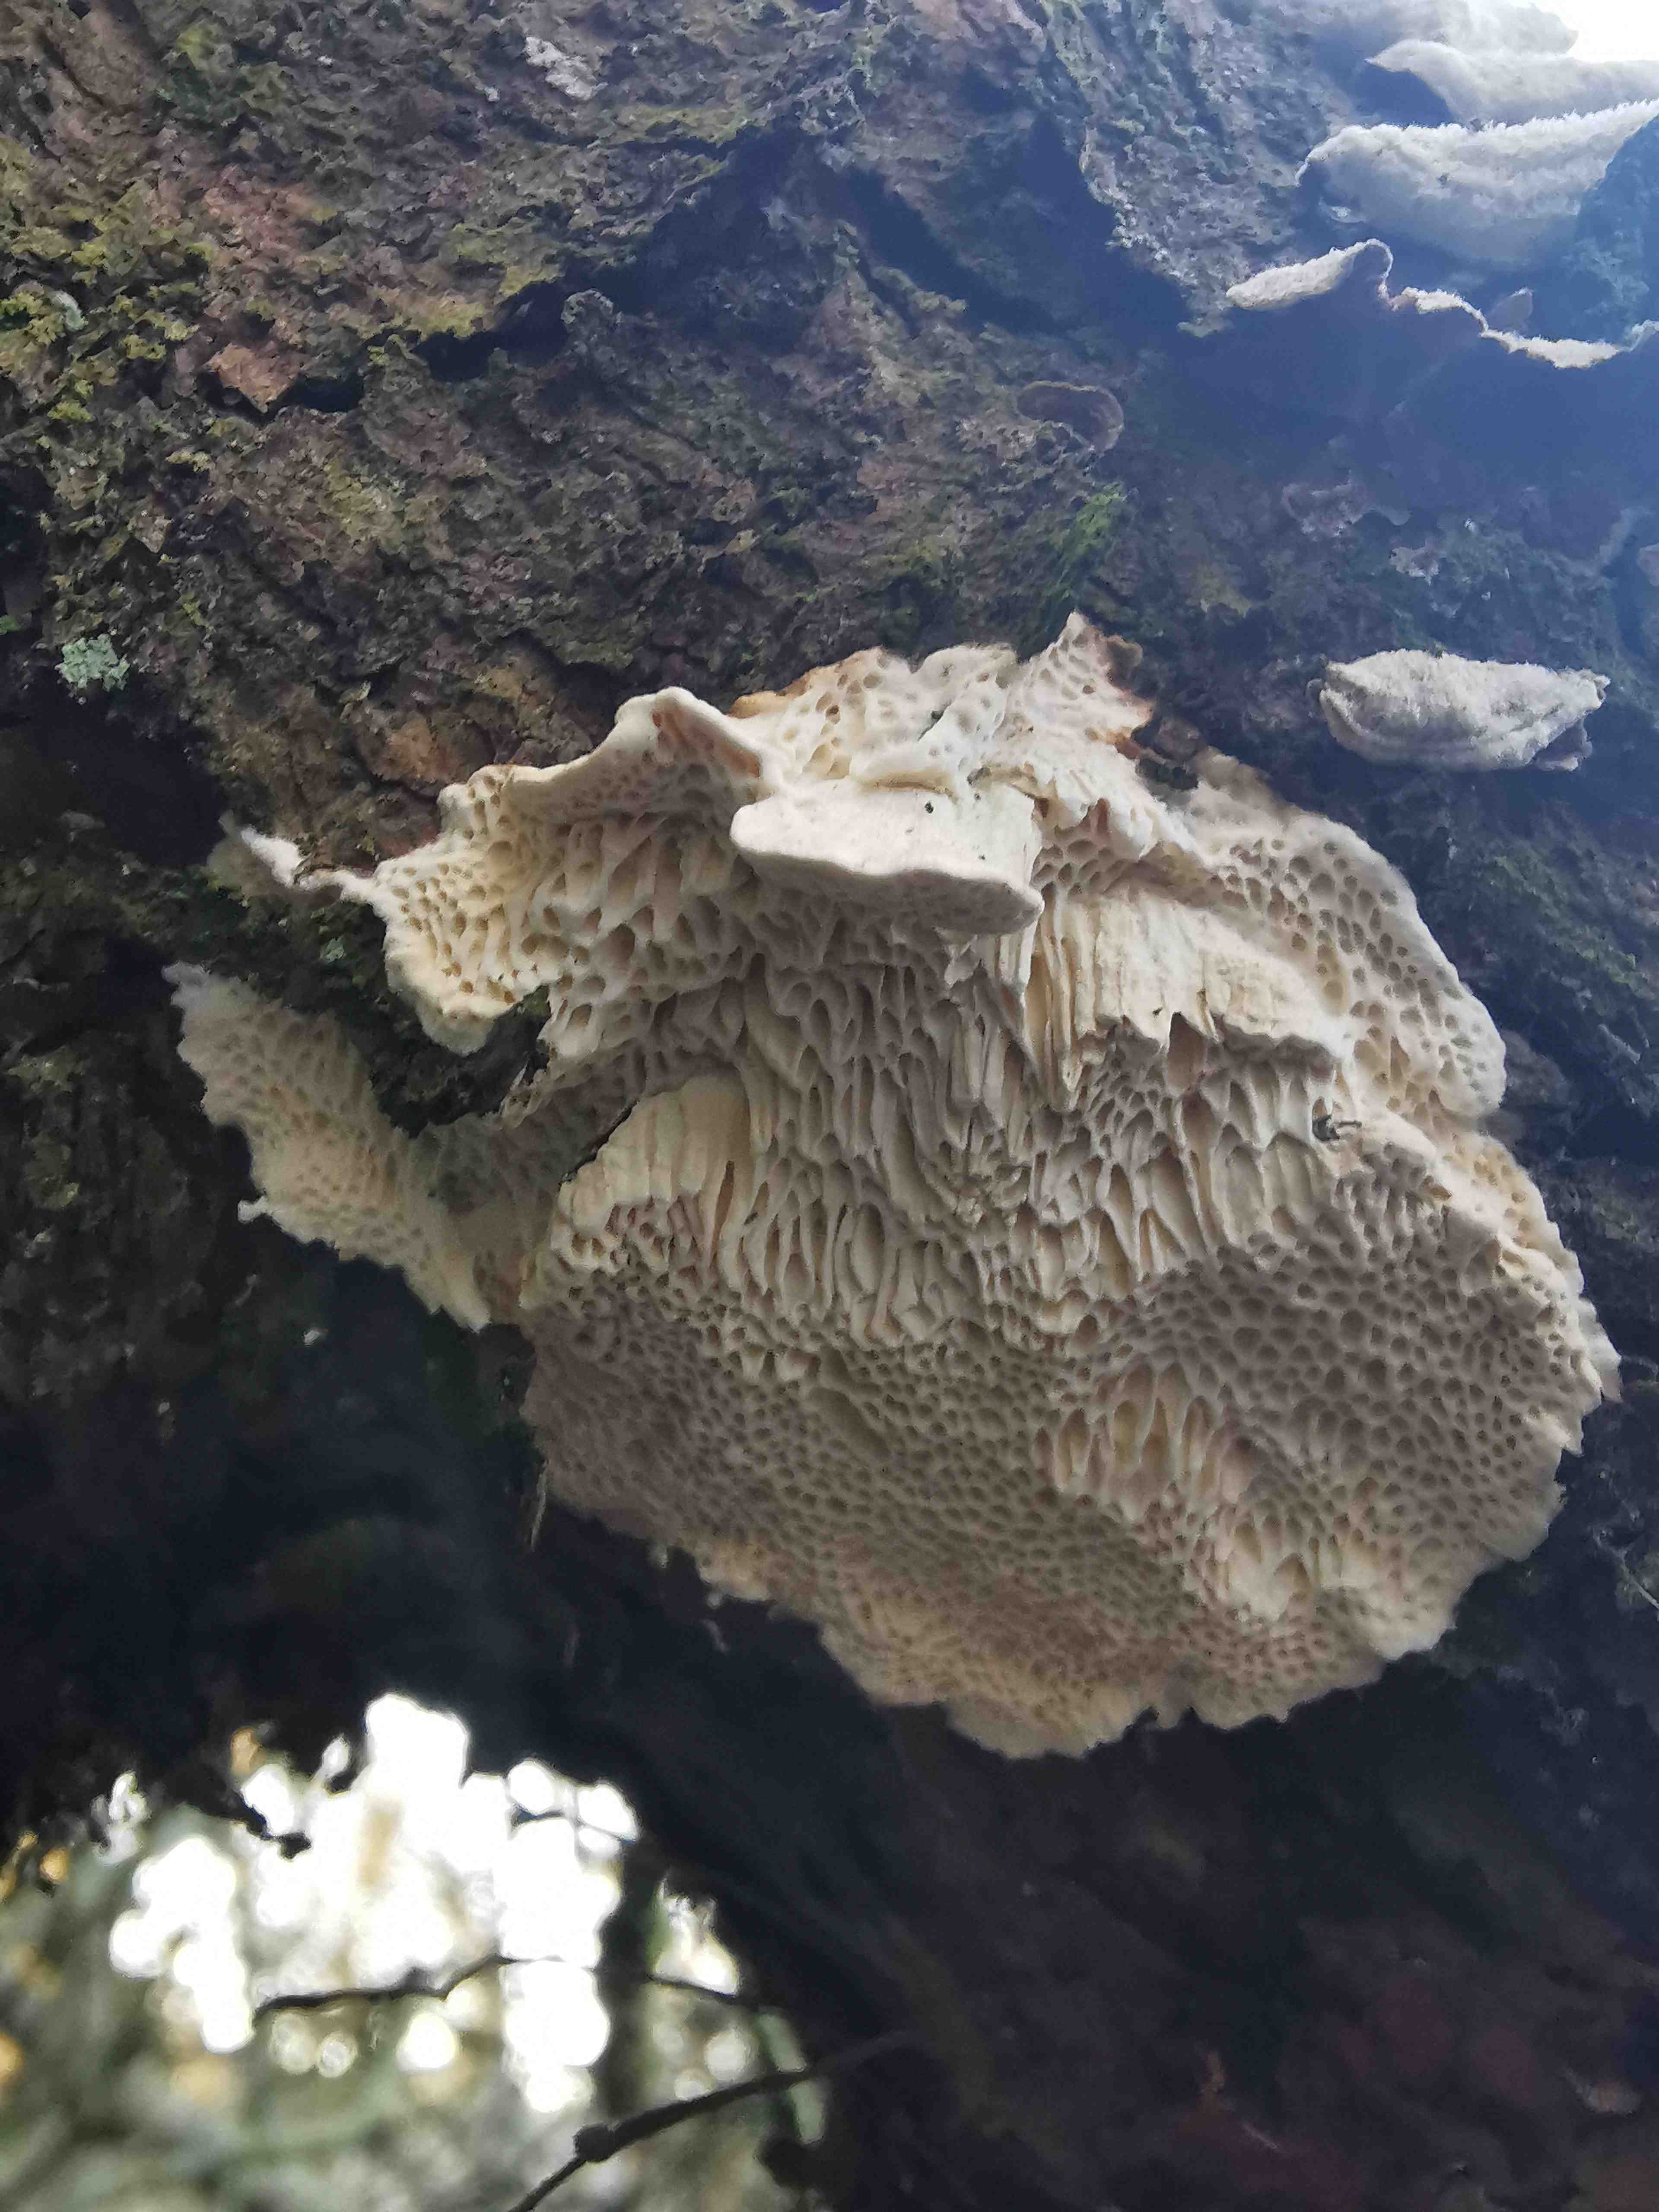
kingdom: Fungi
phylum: Basidiomycota
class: Agaricomycetes
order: Polyporales
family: Fomitopsidaceae
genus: Fomitopsis
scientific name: Fomitopsis
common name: fyrre-skiveporesvamp
